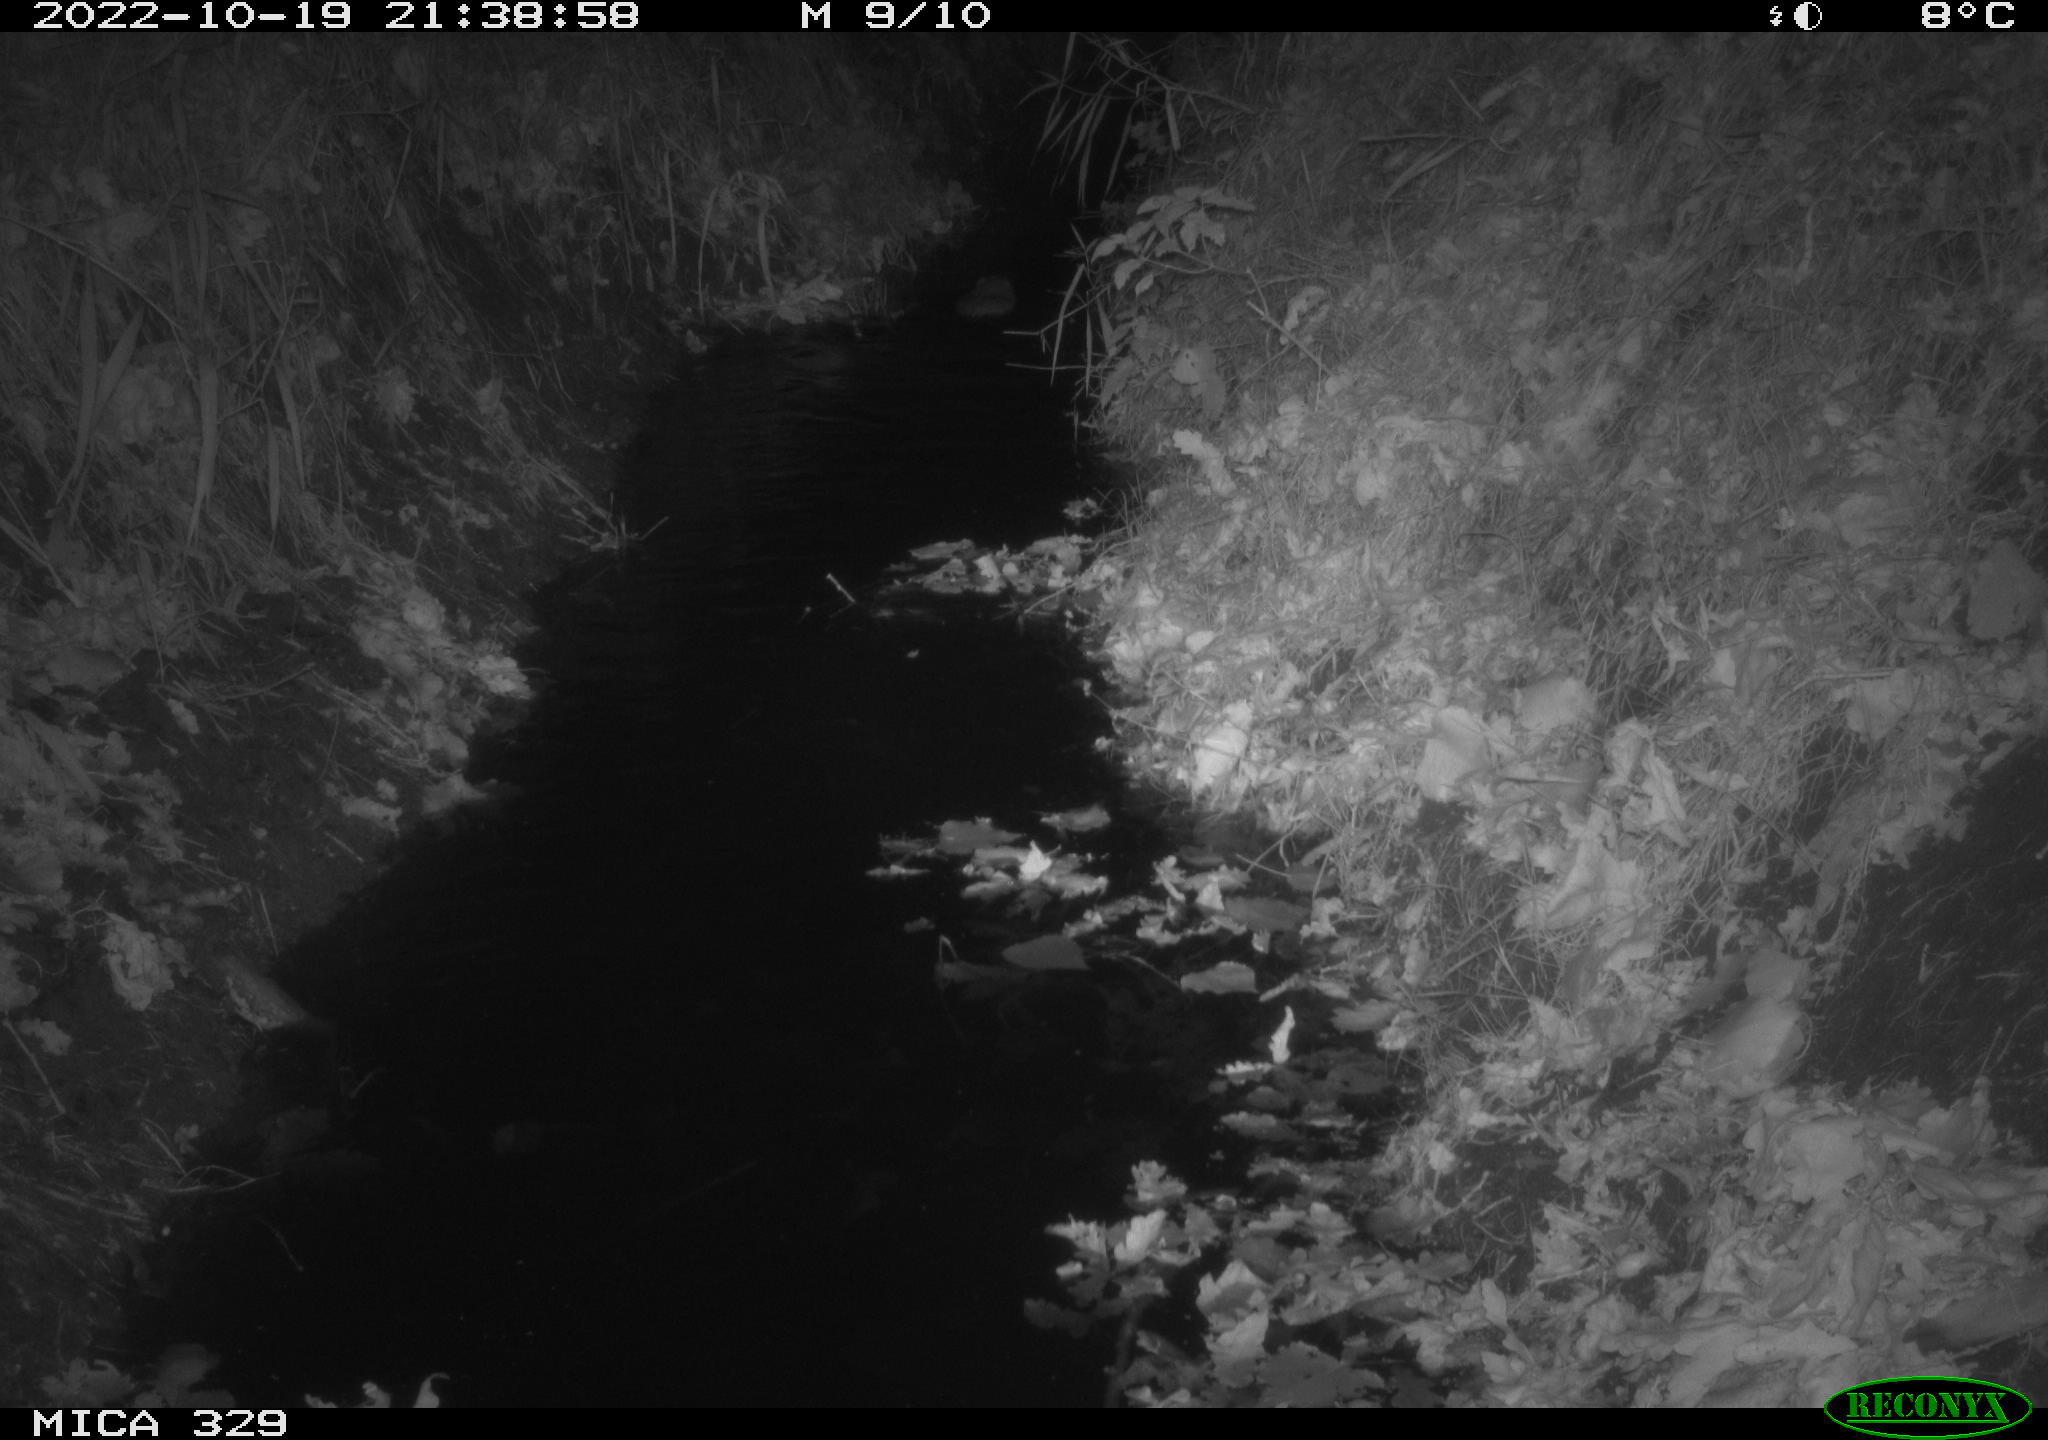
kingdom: Animalia
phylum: Chordata
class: Mammalia
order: Rodentia
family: Cricetidae
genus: Ondatra
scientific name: Ondatra zibethicus
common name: Muskrat
